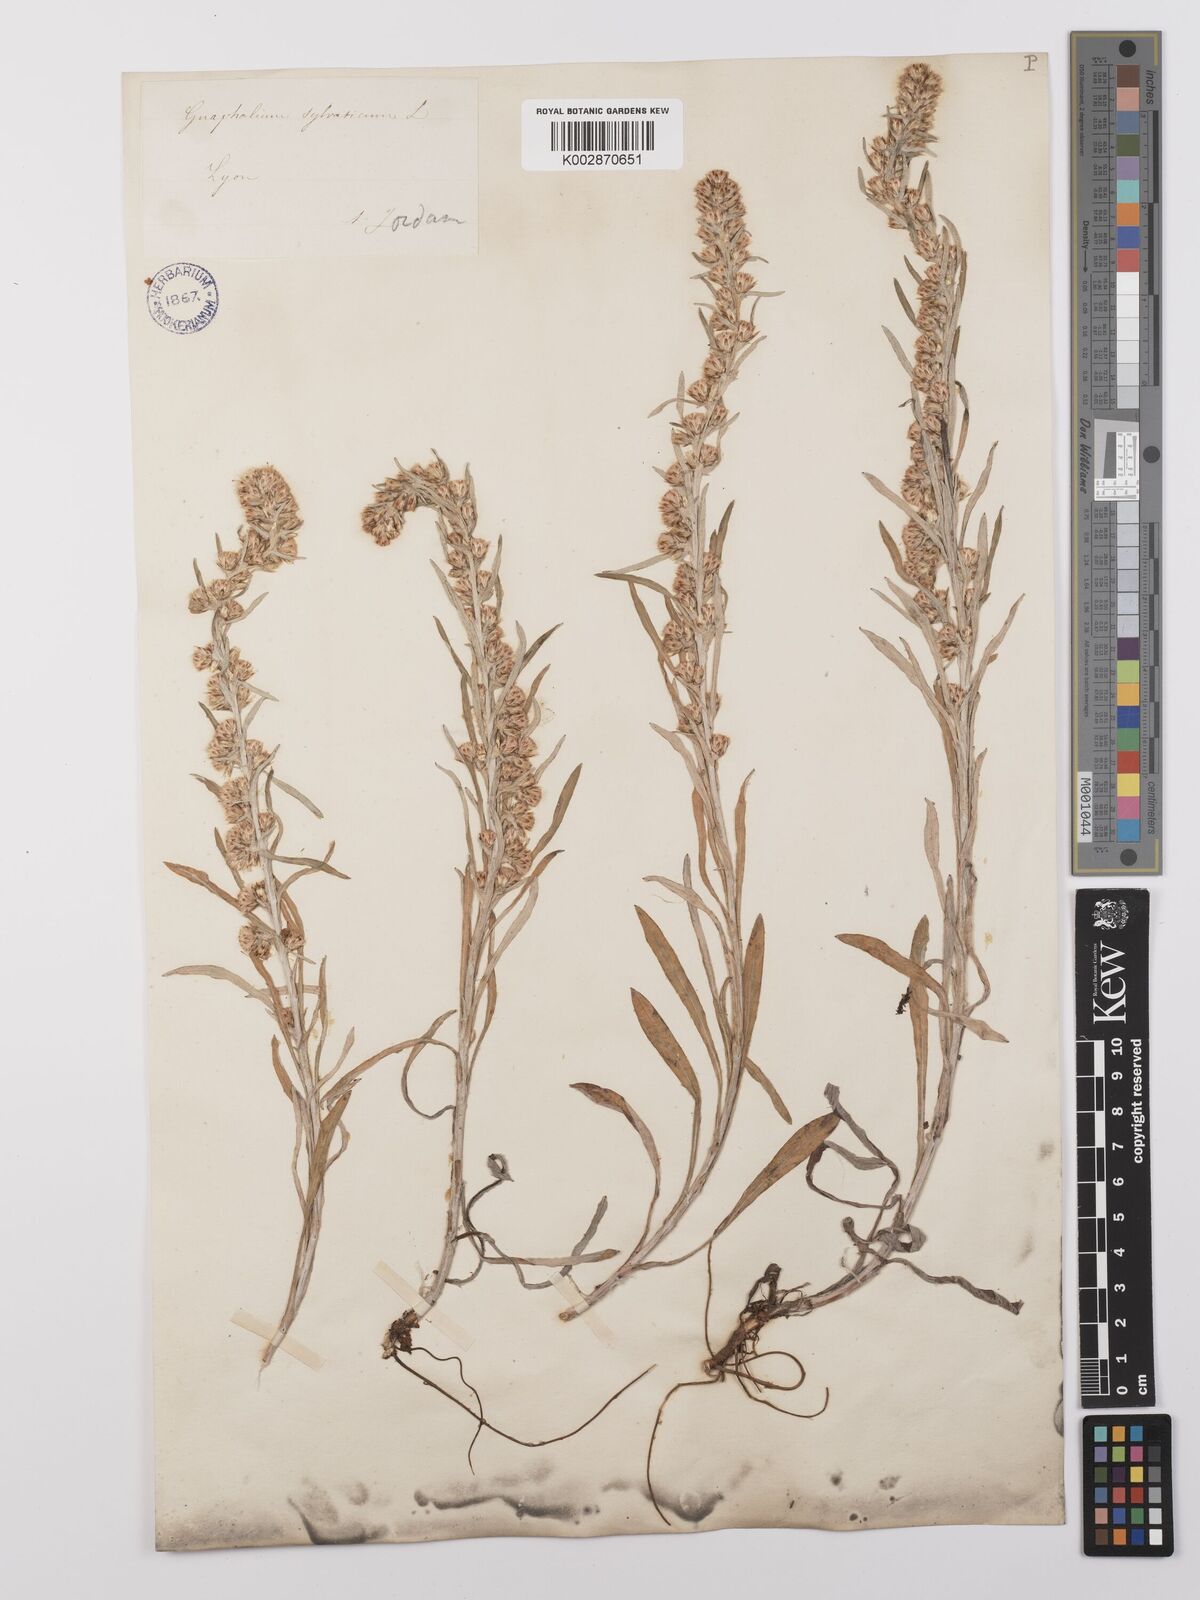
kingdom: Plantae
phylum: Tracheophyta
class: Magnoliopsida
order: Asterales
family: Asteraceae
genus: Omalotheca
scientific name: Omalotheca sylvatica
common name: Heath cudweed
